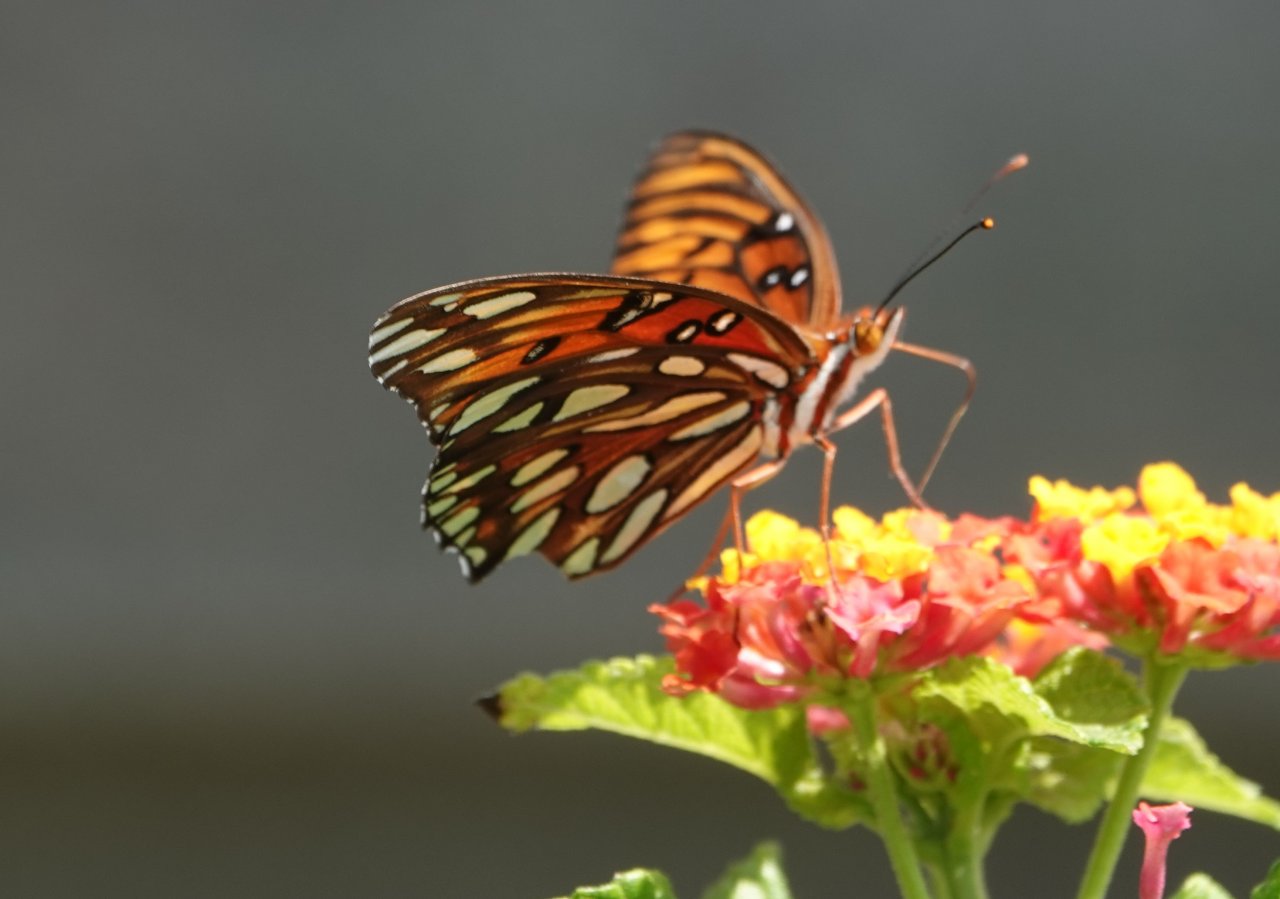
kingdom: Animalia
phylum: Arthropoda
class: Insecta
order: Lepidoptera
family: Nymphalidae
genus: Dione
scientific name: Dione vanillae
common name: Gulf Fritillary
